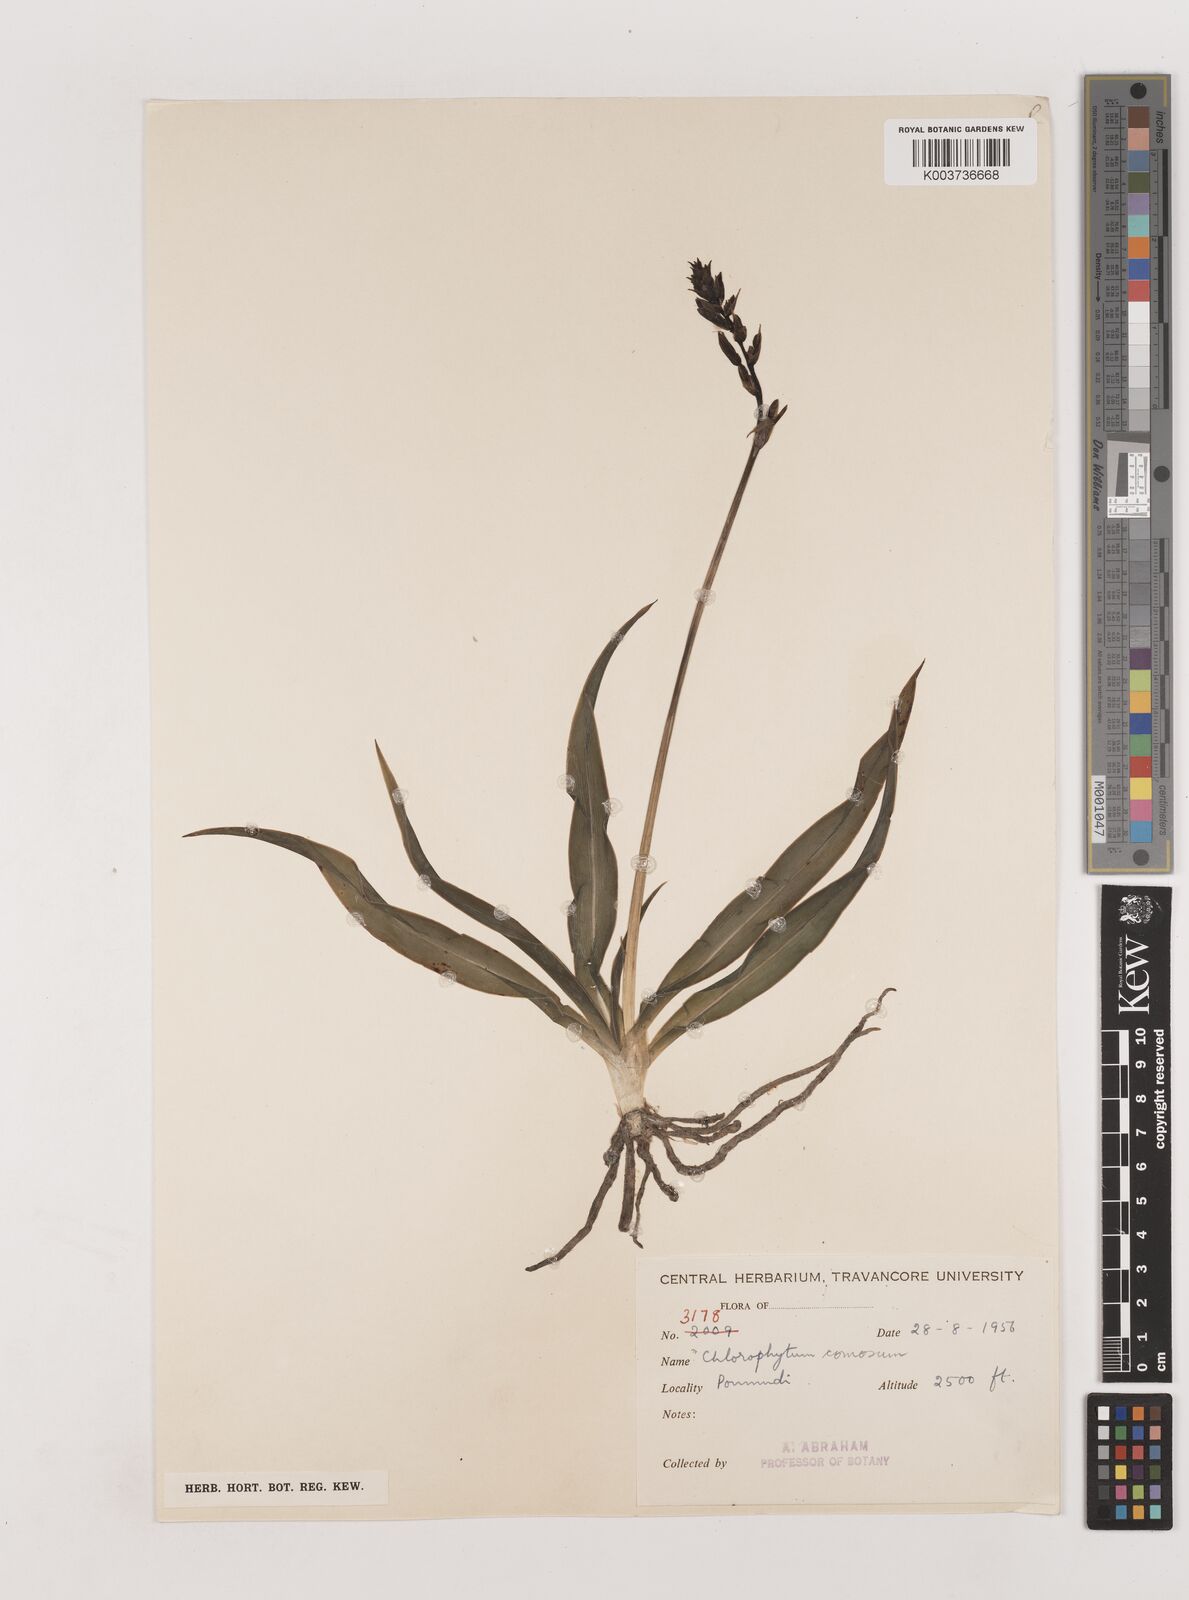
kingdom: Plantae
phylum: Tracheophyta
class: Liliopsida
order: Asparagales
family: Asparagaceae
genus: Chlorophytum
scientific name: Chlorophytum comosum
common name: Spider plant
